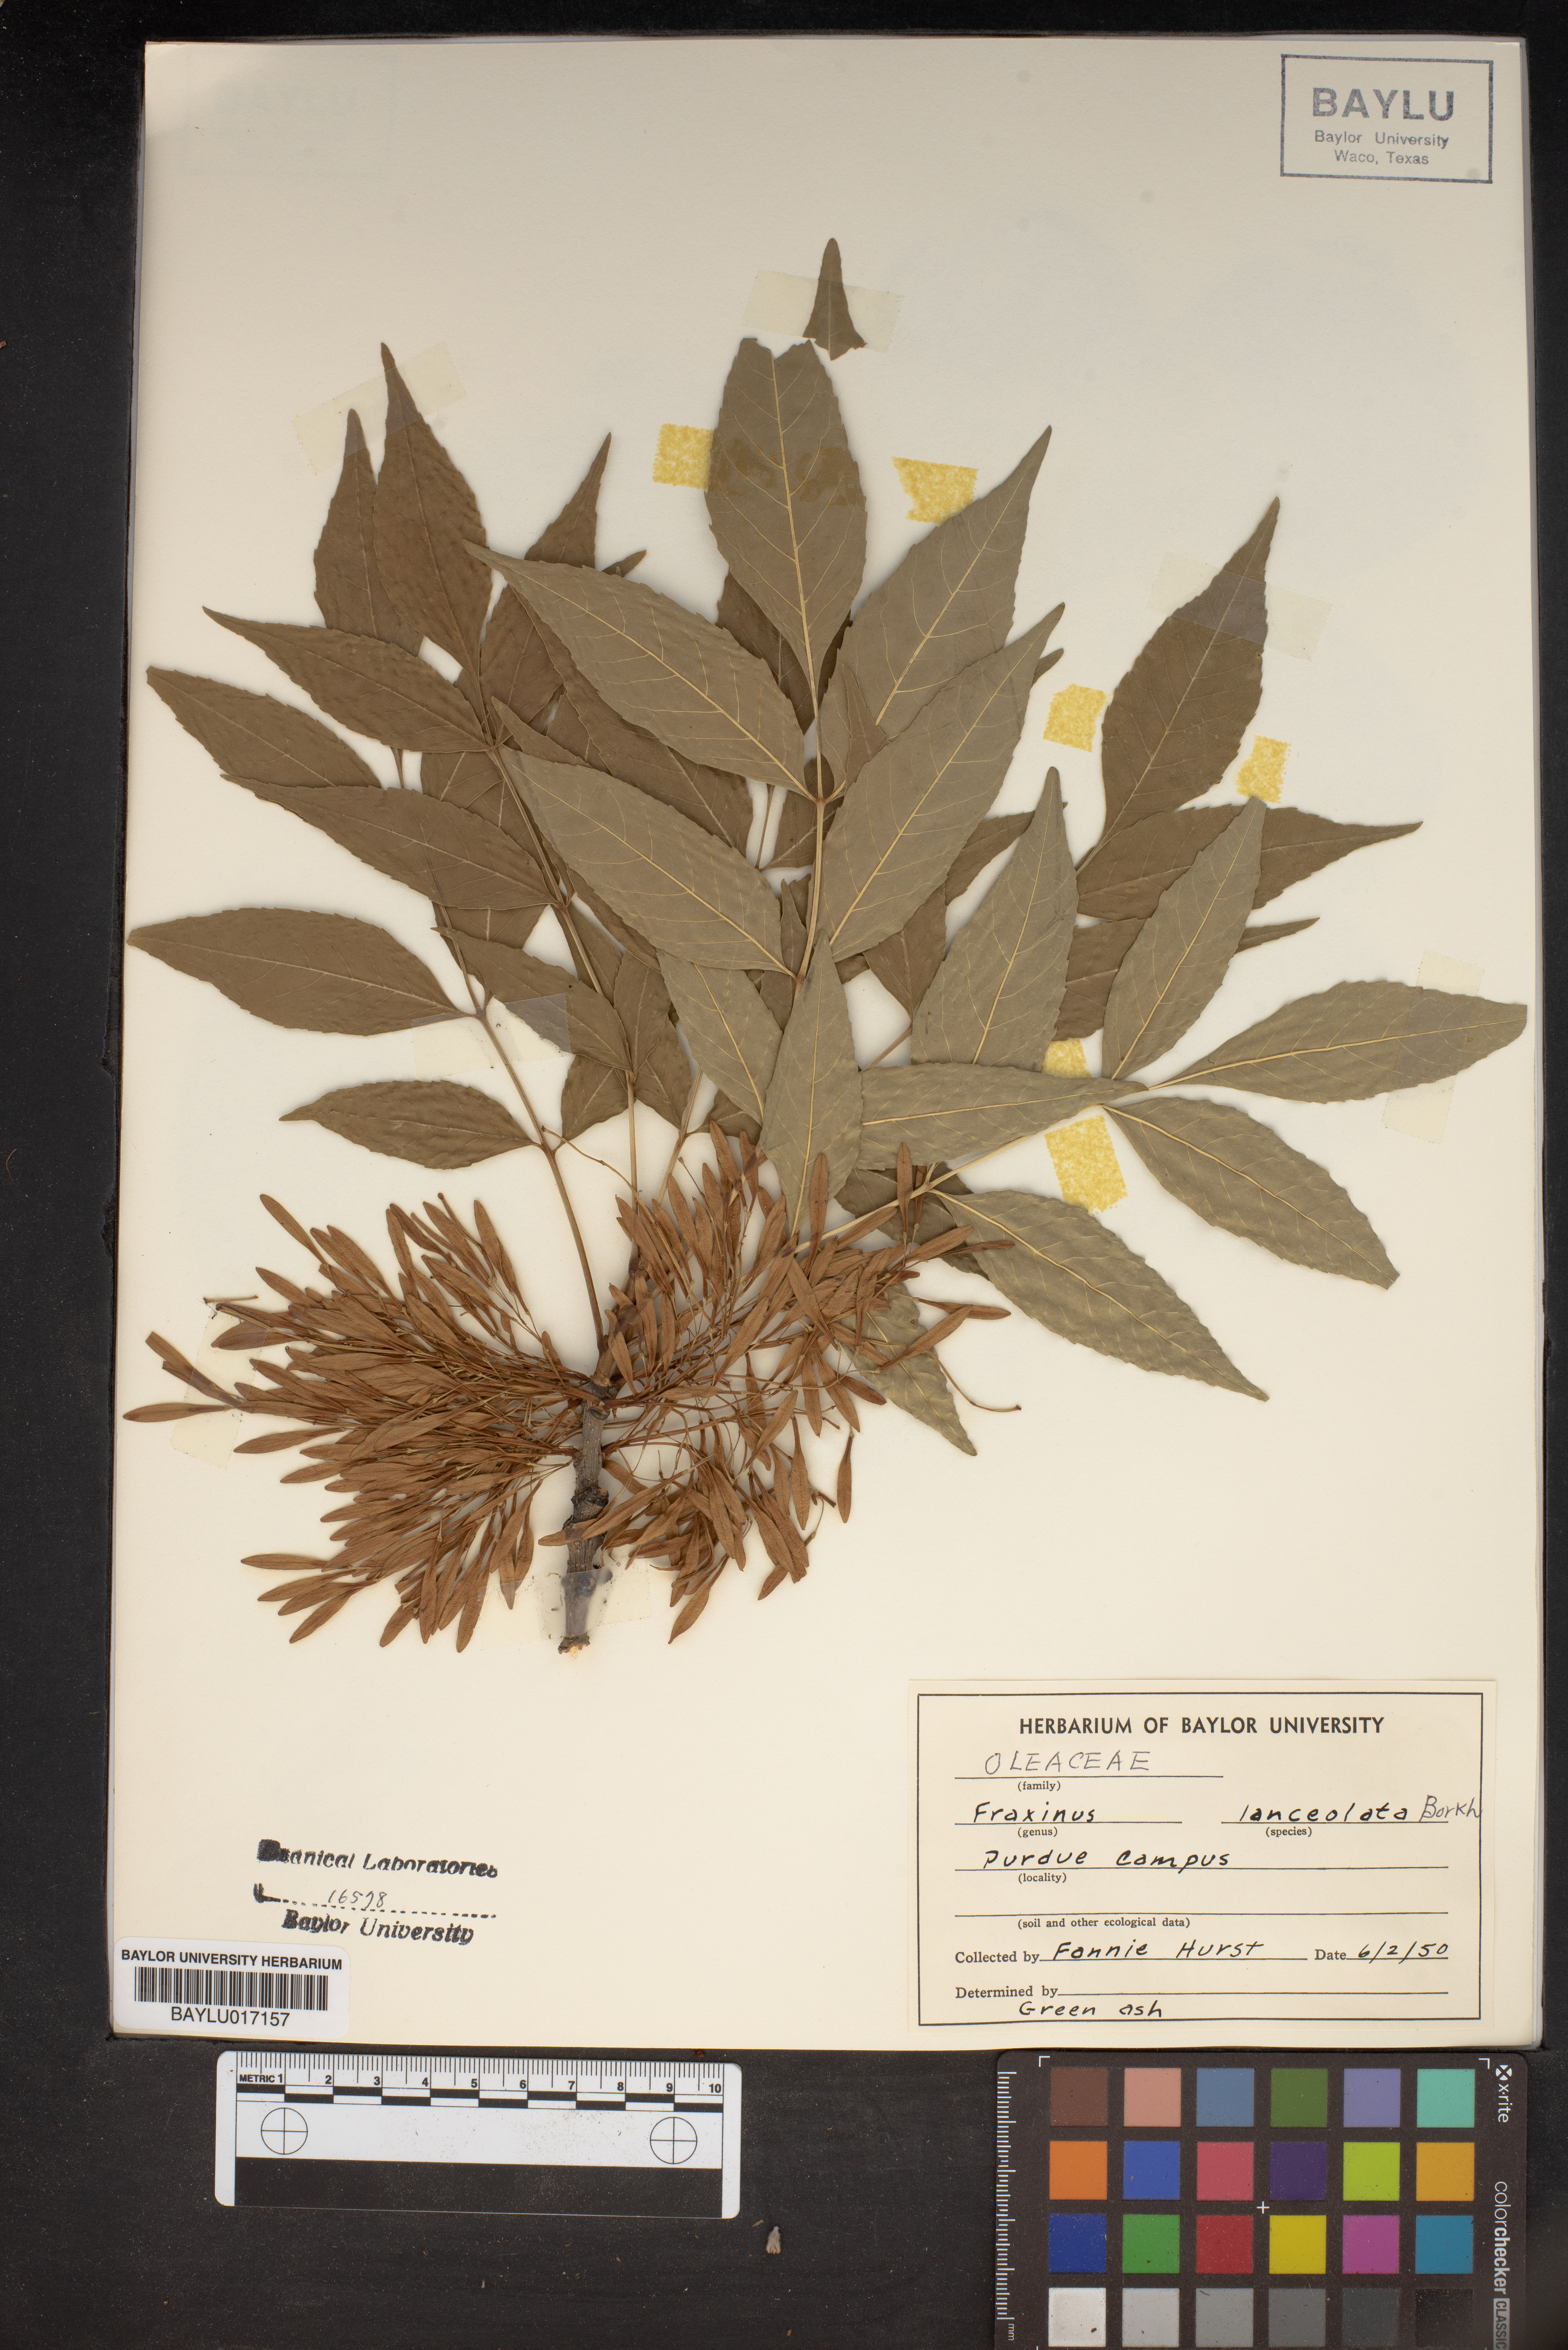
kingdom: Plantae
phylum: Tracheophyta
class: Magnoliopsida
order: Lamiales
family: Oleaceae
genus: Fraxinus
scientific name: Fraxinus pennsylvanica
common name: Green ash
